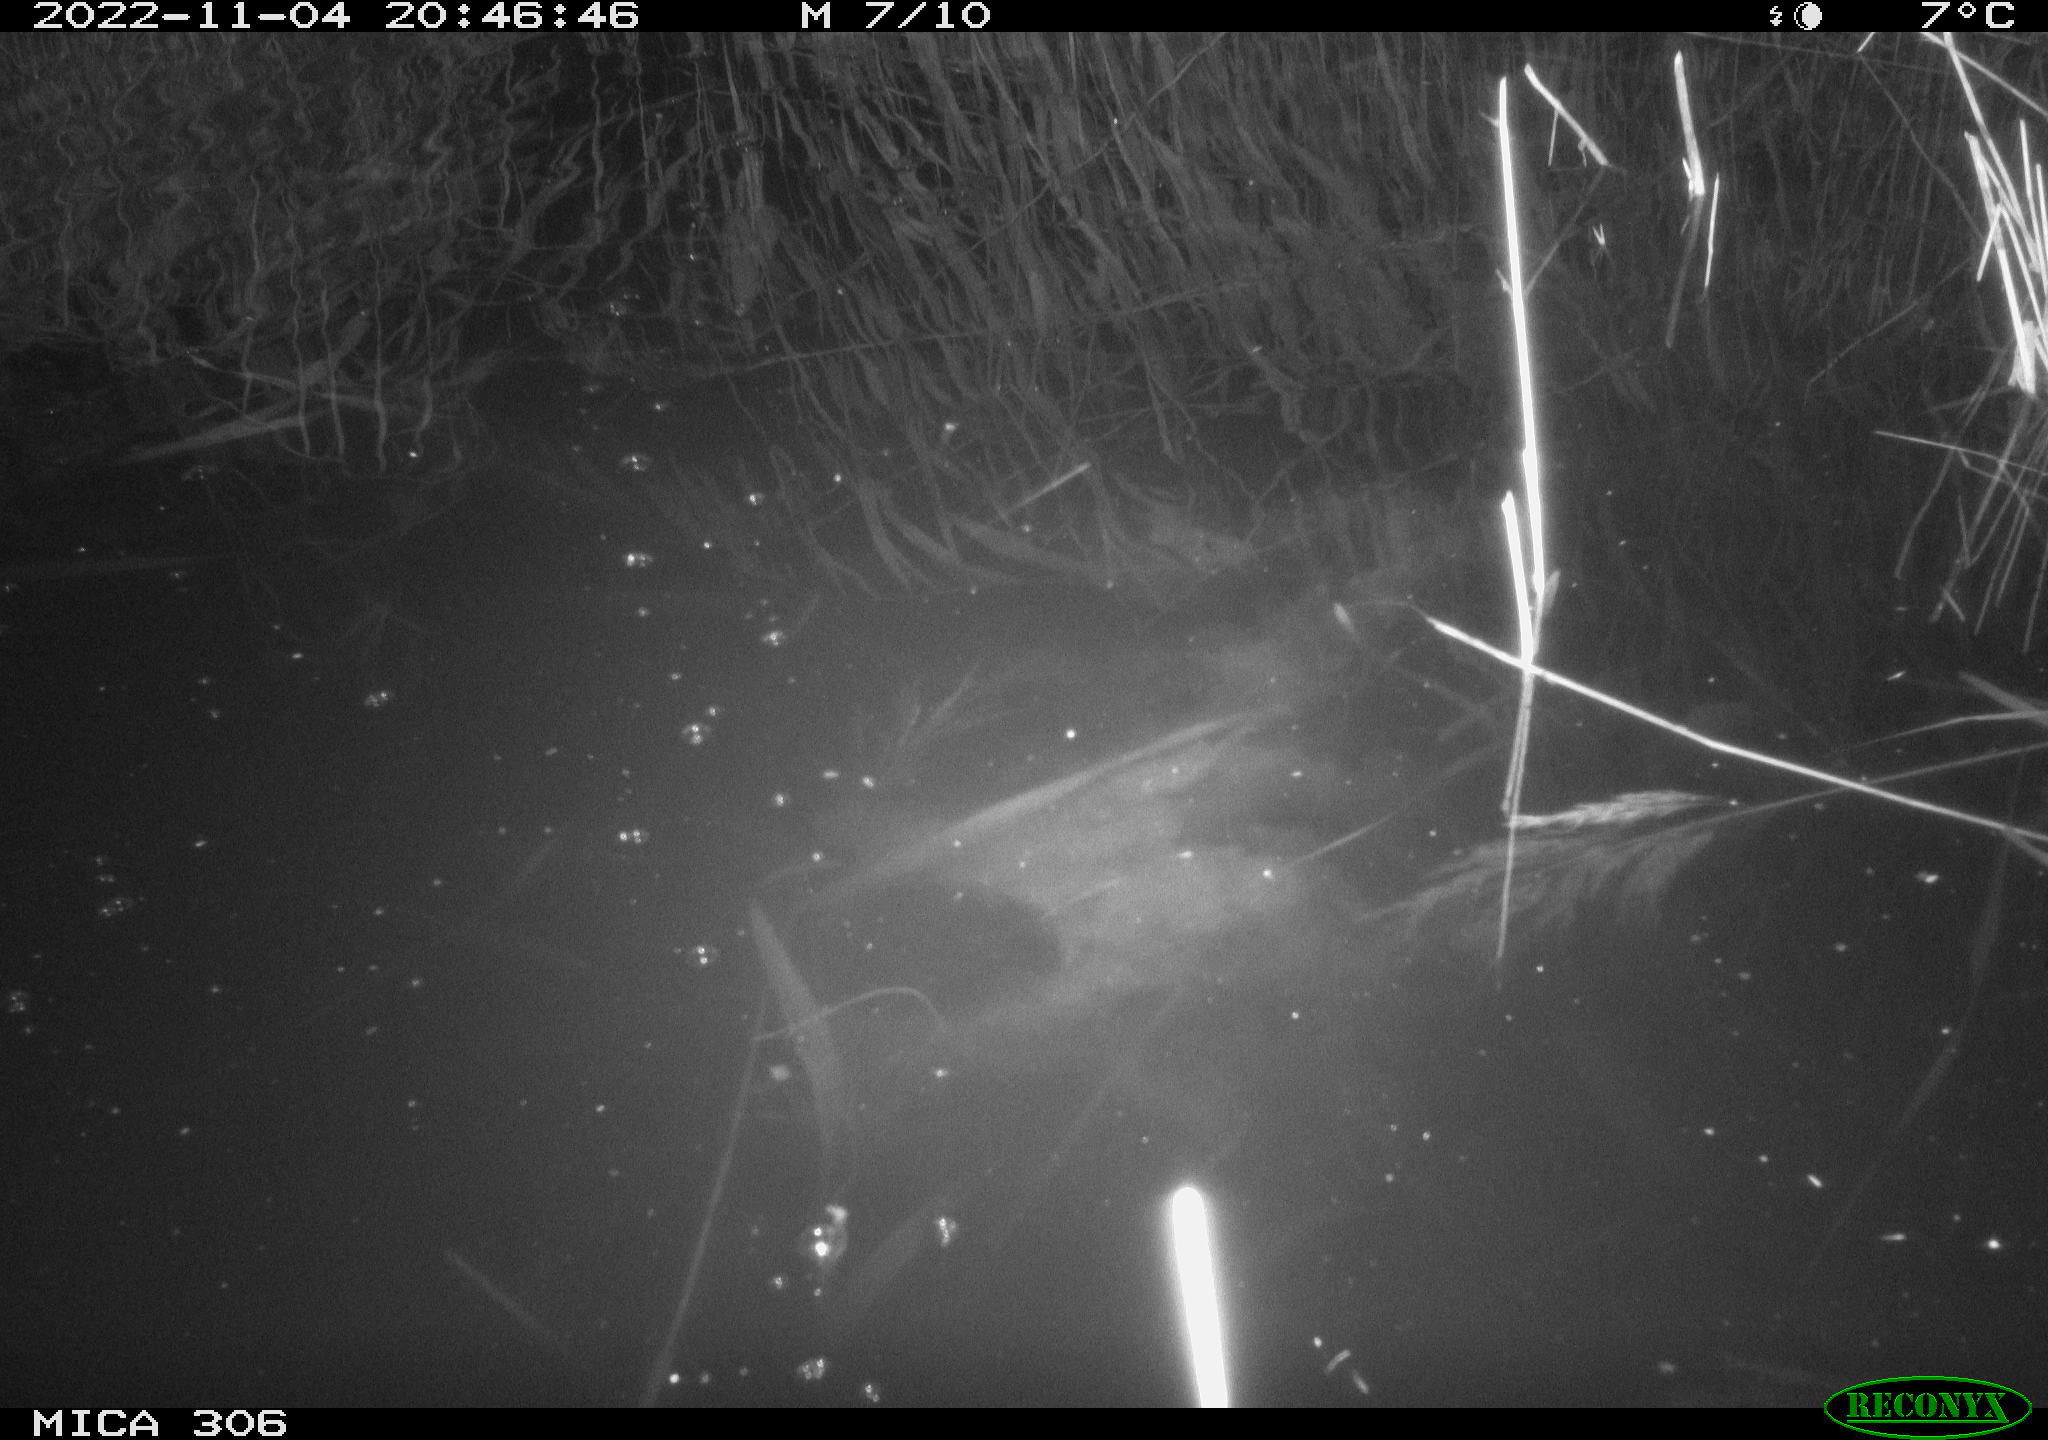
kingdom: Animalia
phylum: Chordata
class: Mammalia
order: Rodentia
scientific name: Rodentia
